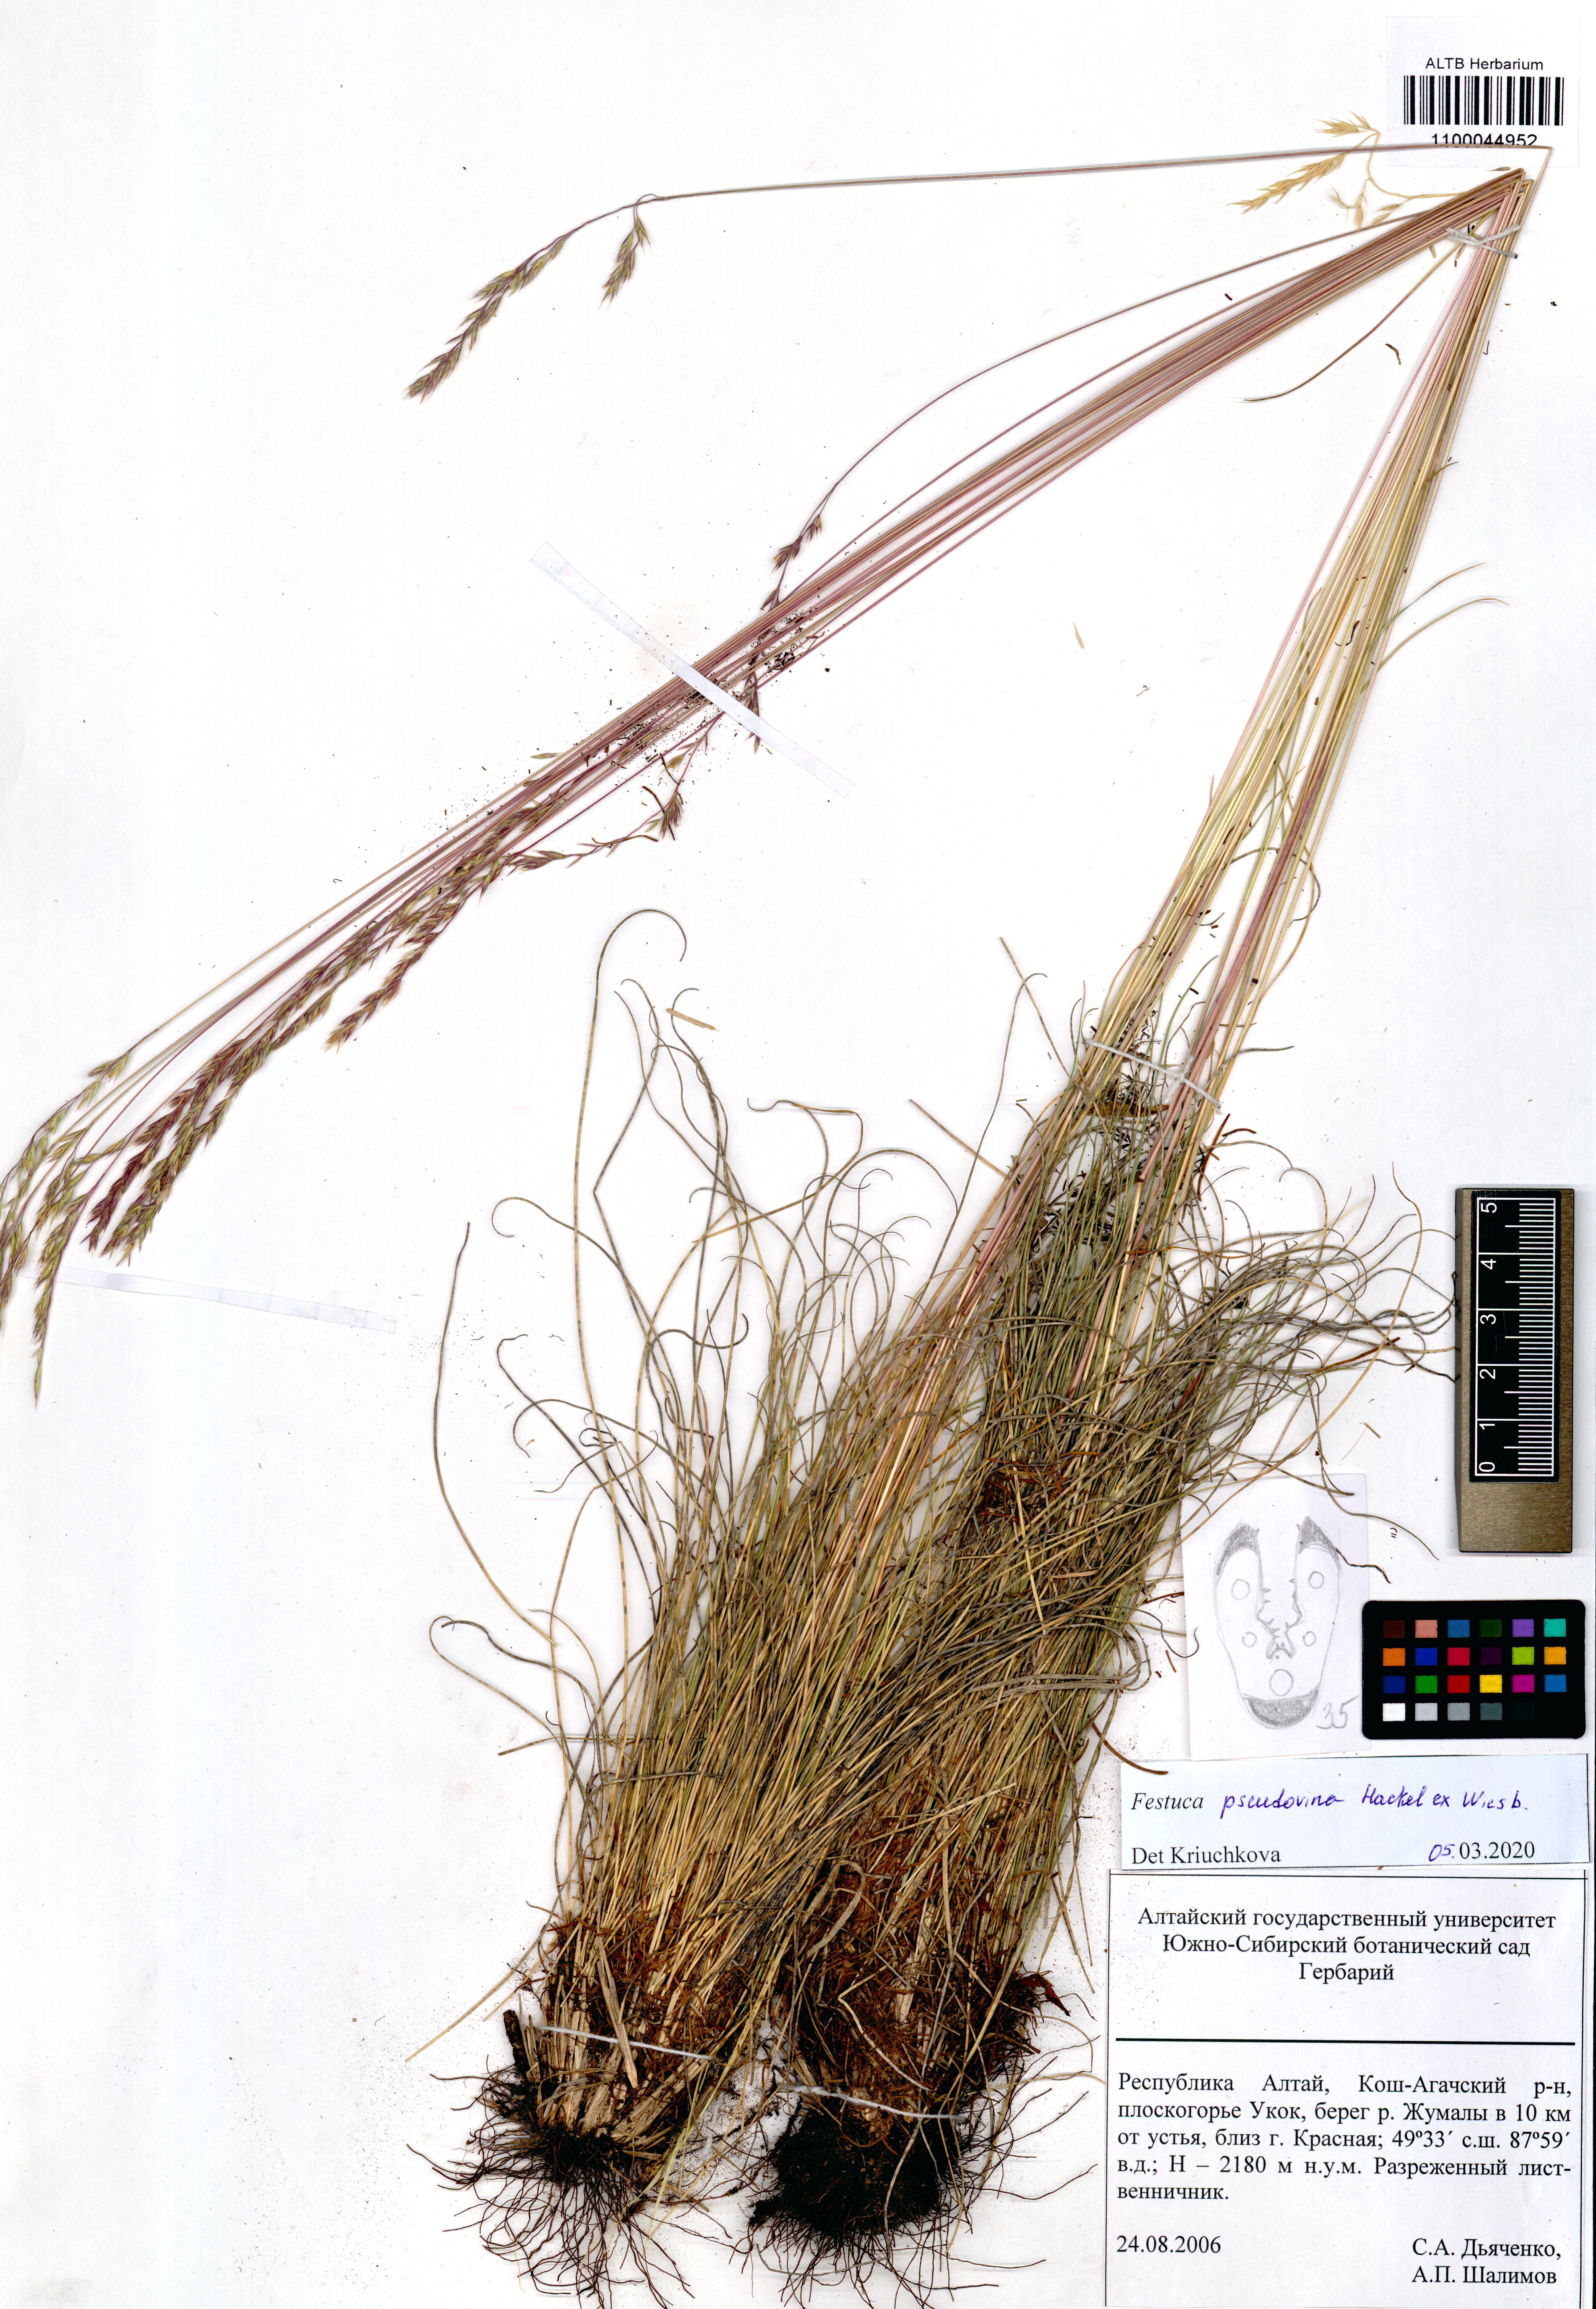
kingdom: Plantae
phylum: Tracheophyta
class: Liliopsida
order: Poales
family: Poaceae
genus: Festuca
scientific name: Festuca pulchra
